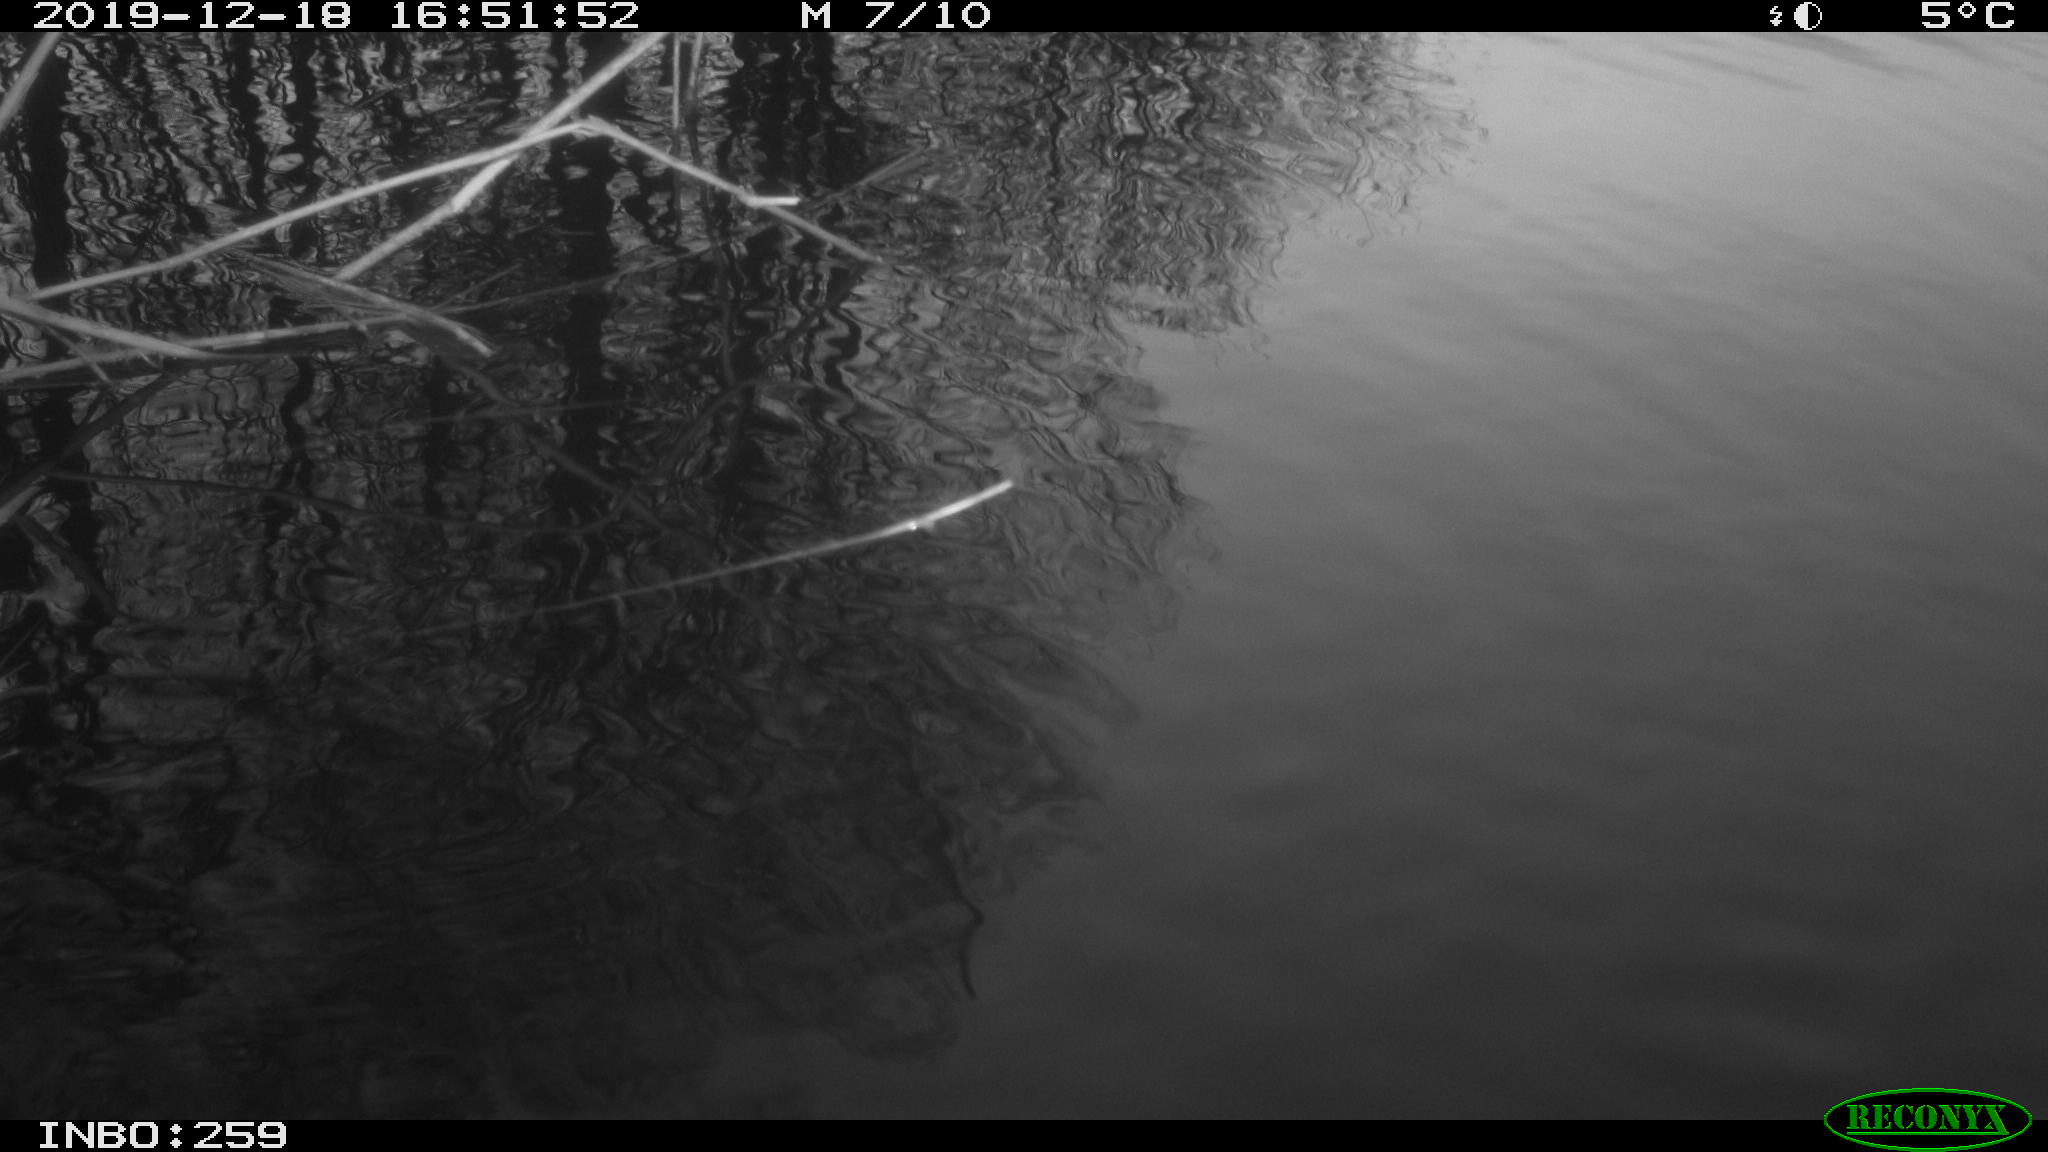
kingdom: Animalia
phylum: Chordata
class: Aves
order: Gruiformes
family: Rallidae
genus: Gallinula
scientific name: Gallinula chloropus
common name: Common moorhen
